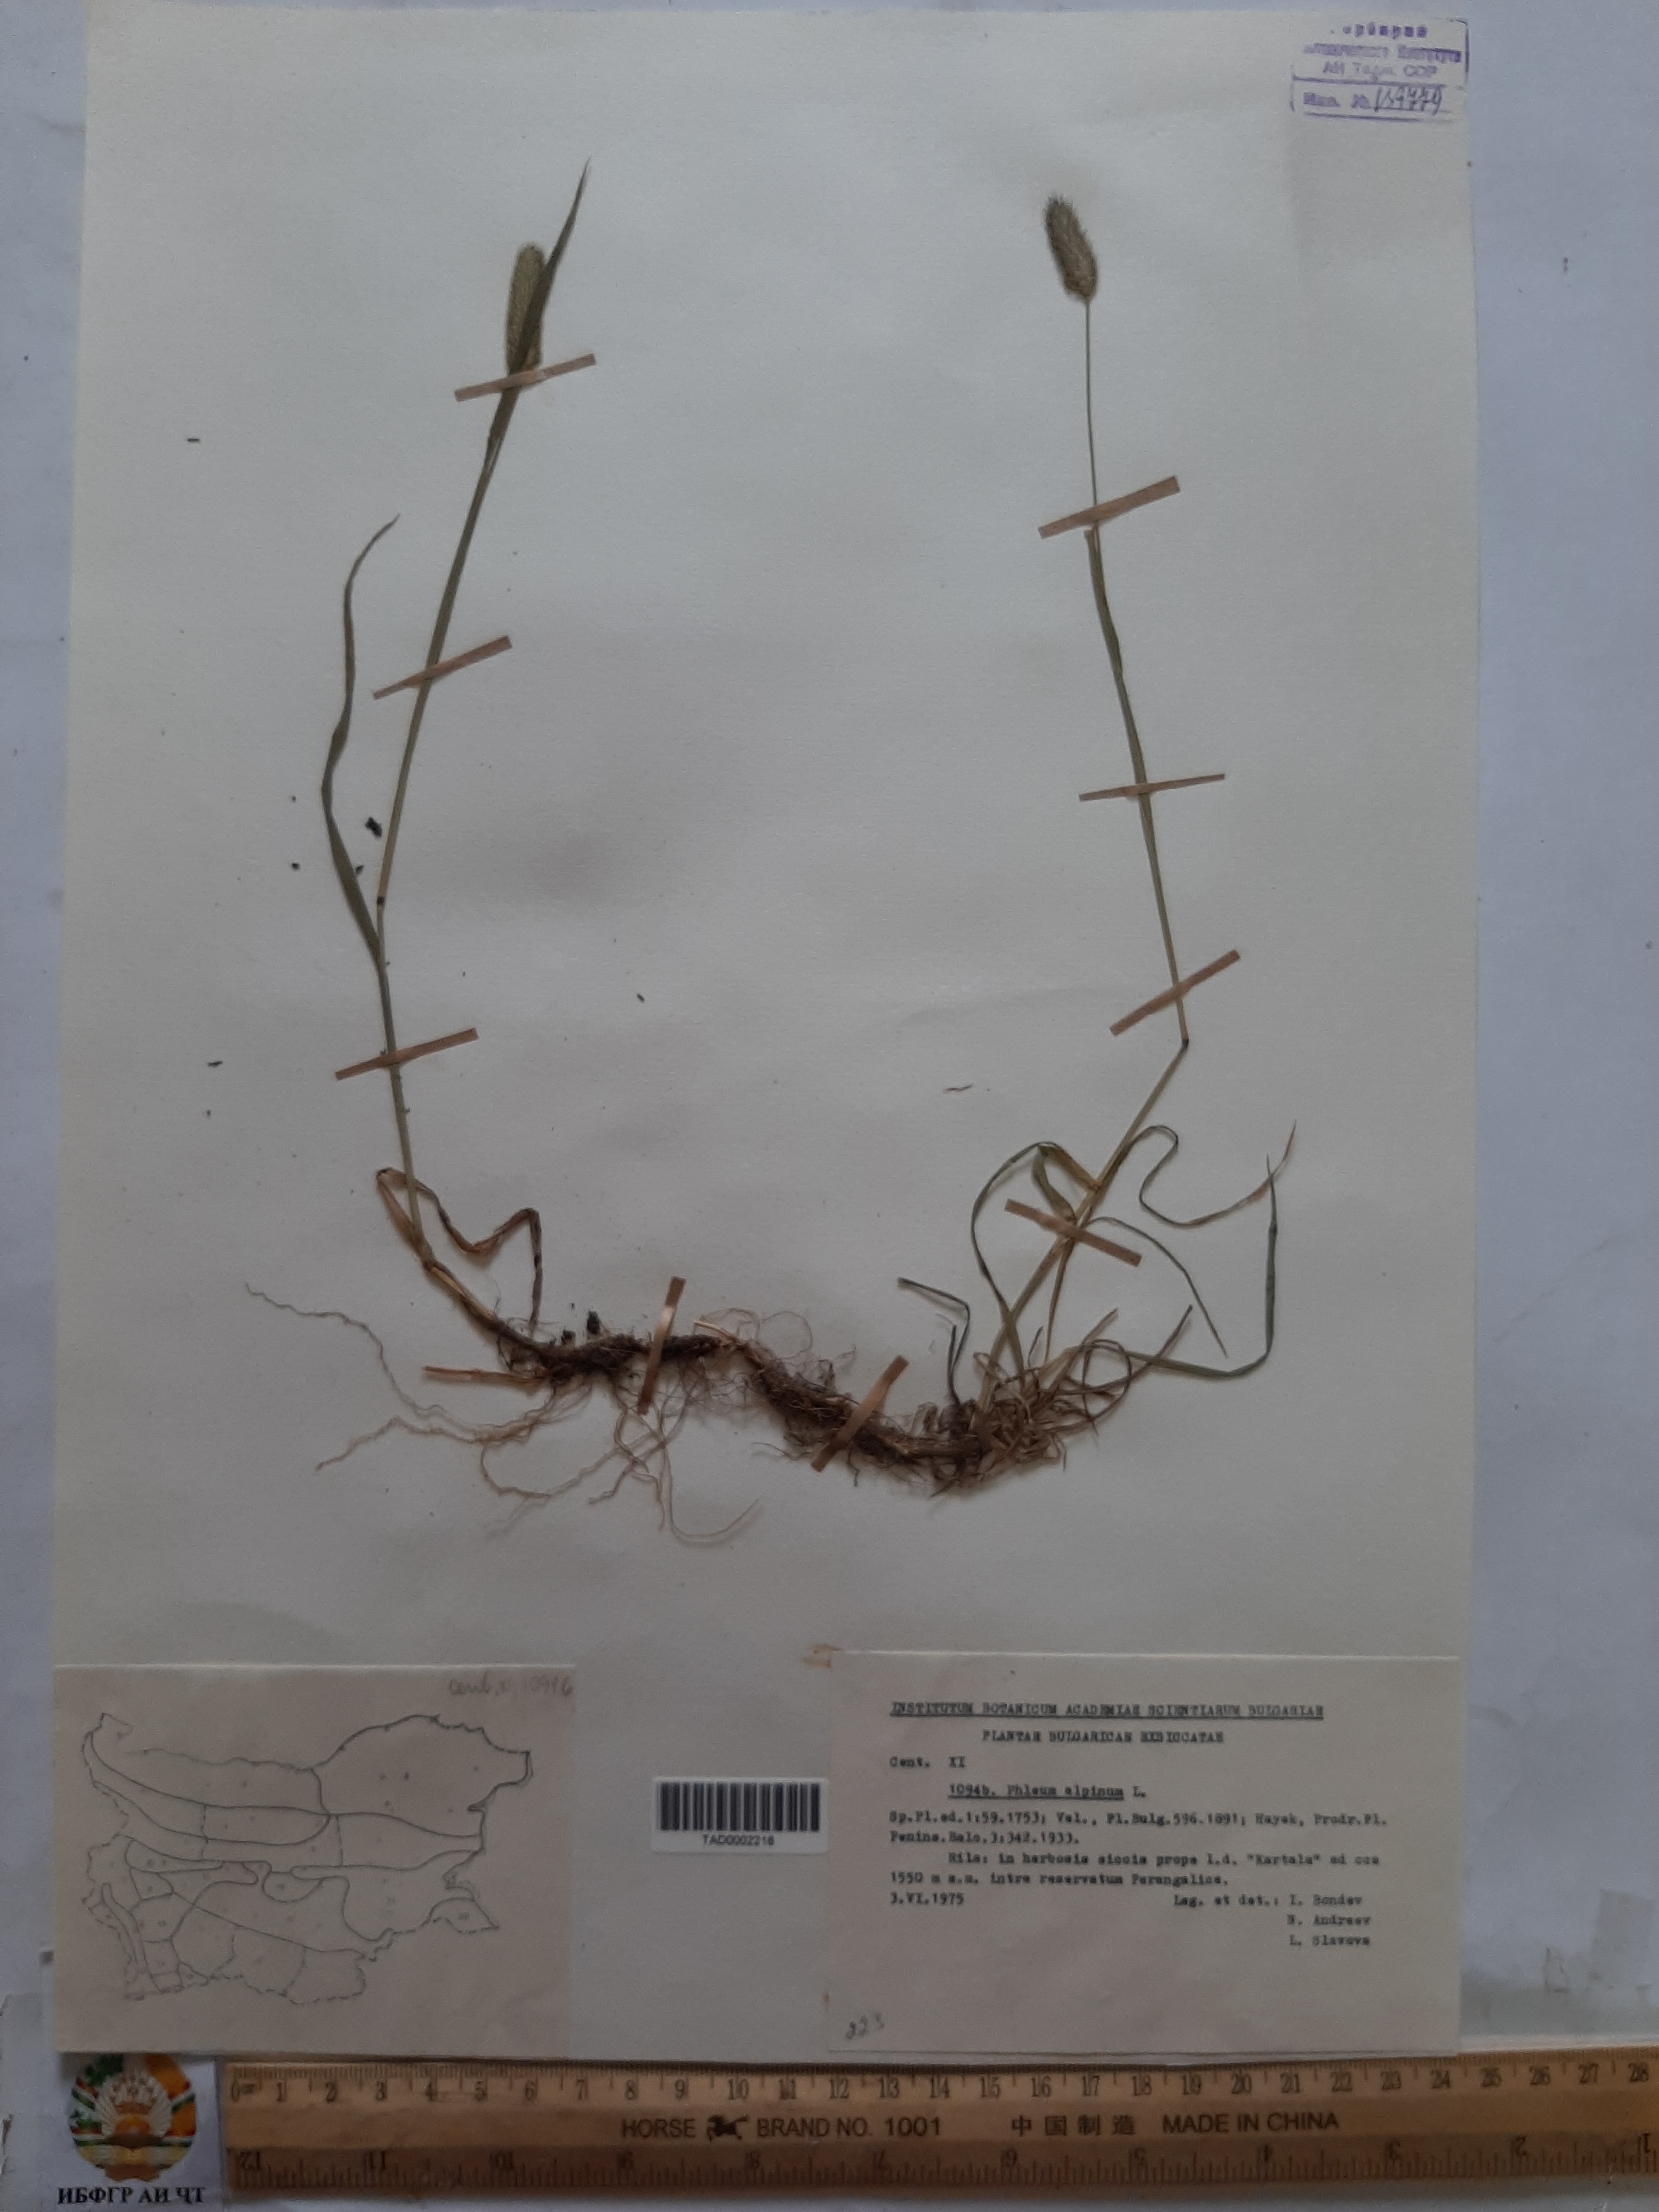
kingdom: Plantae
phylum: Tracheophyta
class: Liliopsida
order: Poales
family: Poaceae
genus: Phleum
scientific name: Phleum alpinum
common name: Alpine cat's-tail
